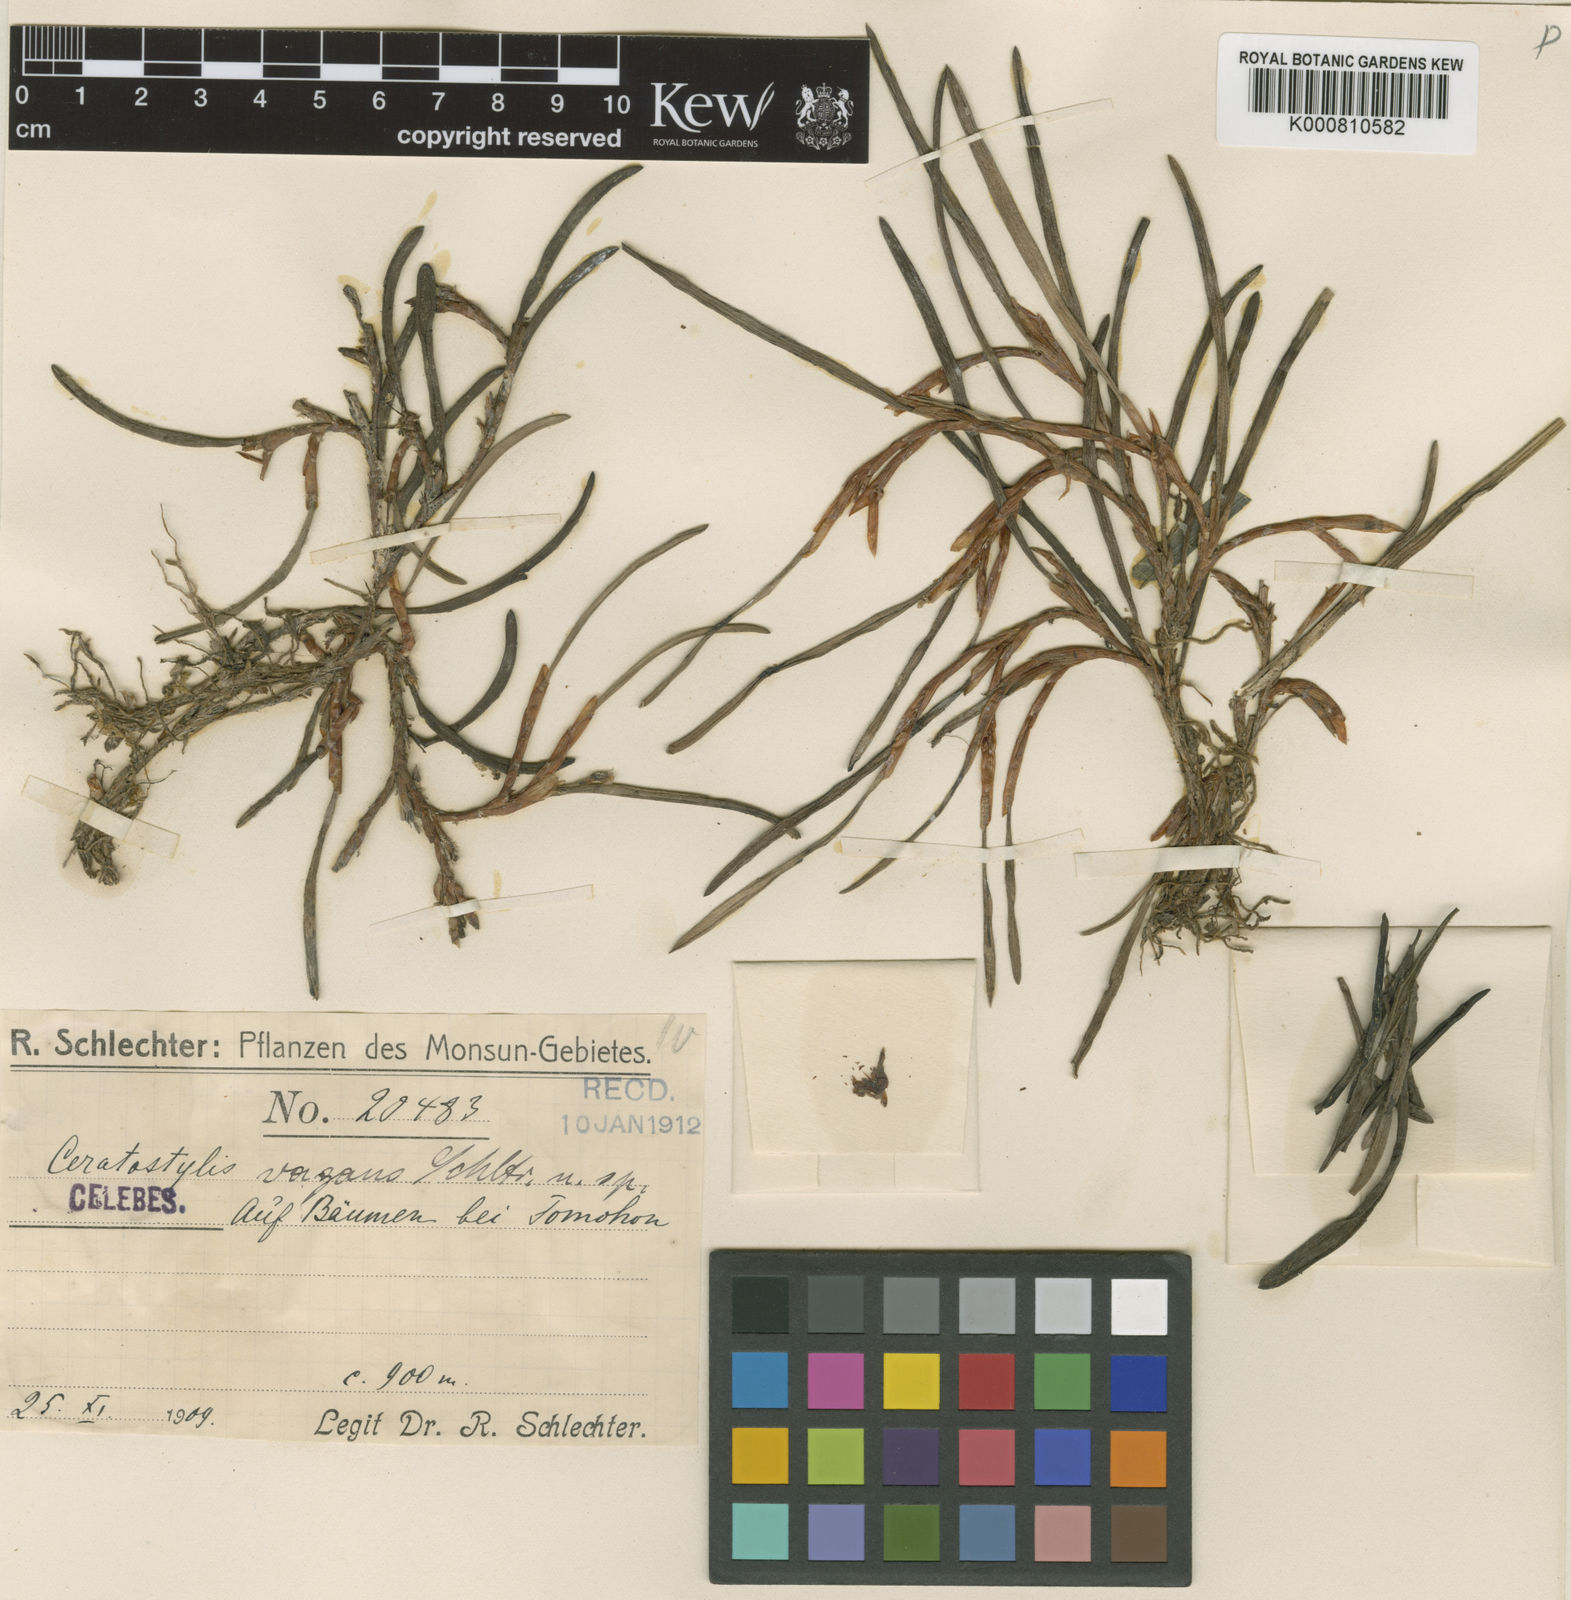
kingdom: Plantae
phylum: Tracheophyta
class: Liliopsida
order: Asparagales
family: Orchidaceae
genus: Ceratostylis
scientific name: Ceratostylis vagans
